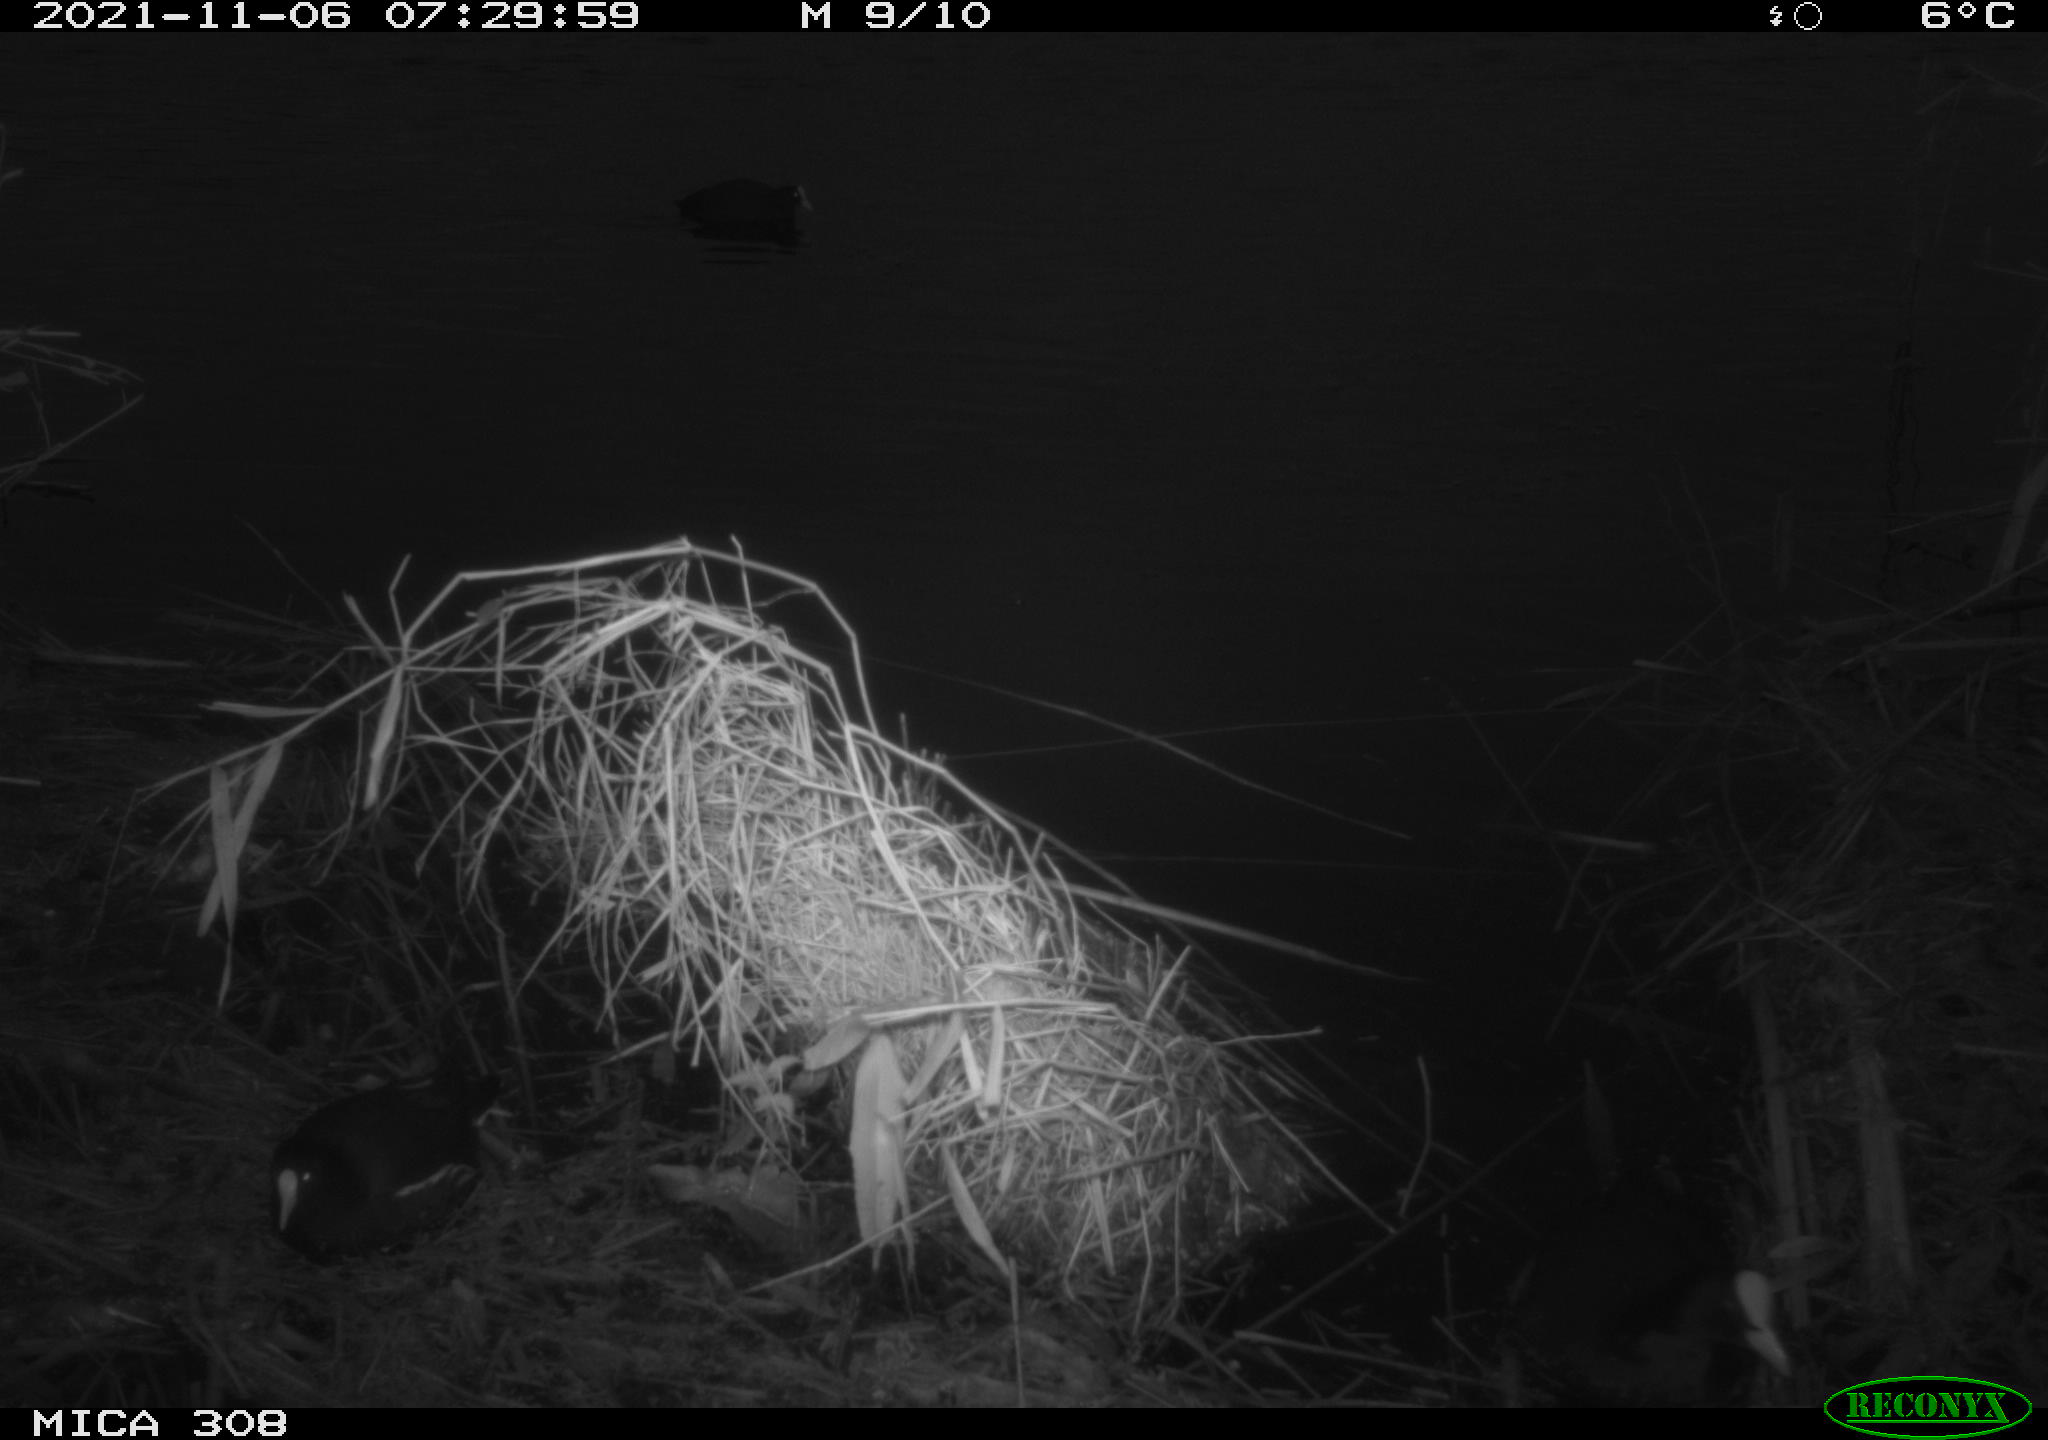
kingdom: Animalia
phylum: Chordata
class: Aves
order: Gruiformes
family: Rallidae
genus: Fulica
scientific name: Fulica atra
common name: Eurasian coot
